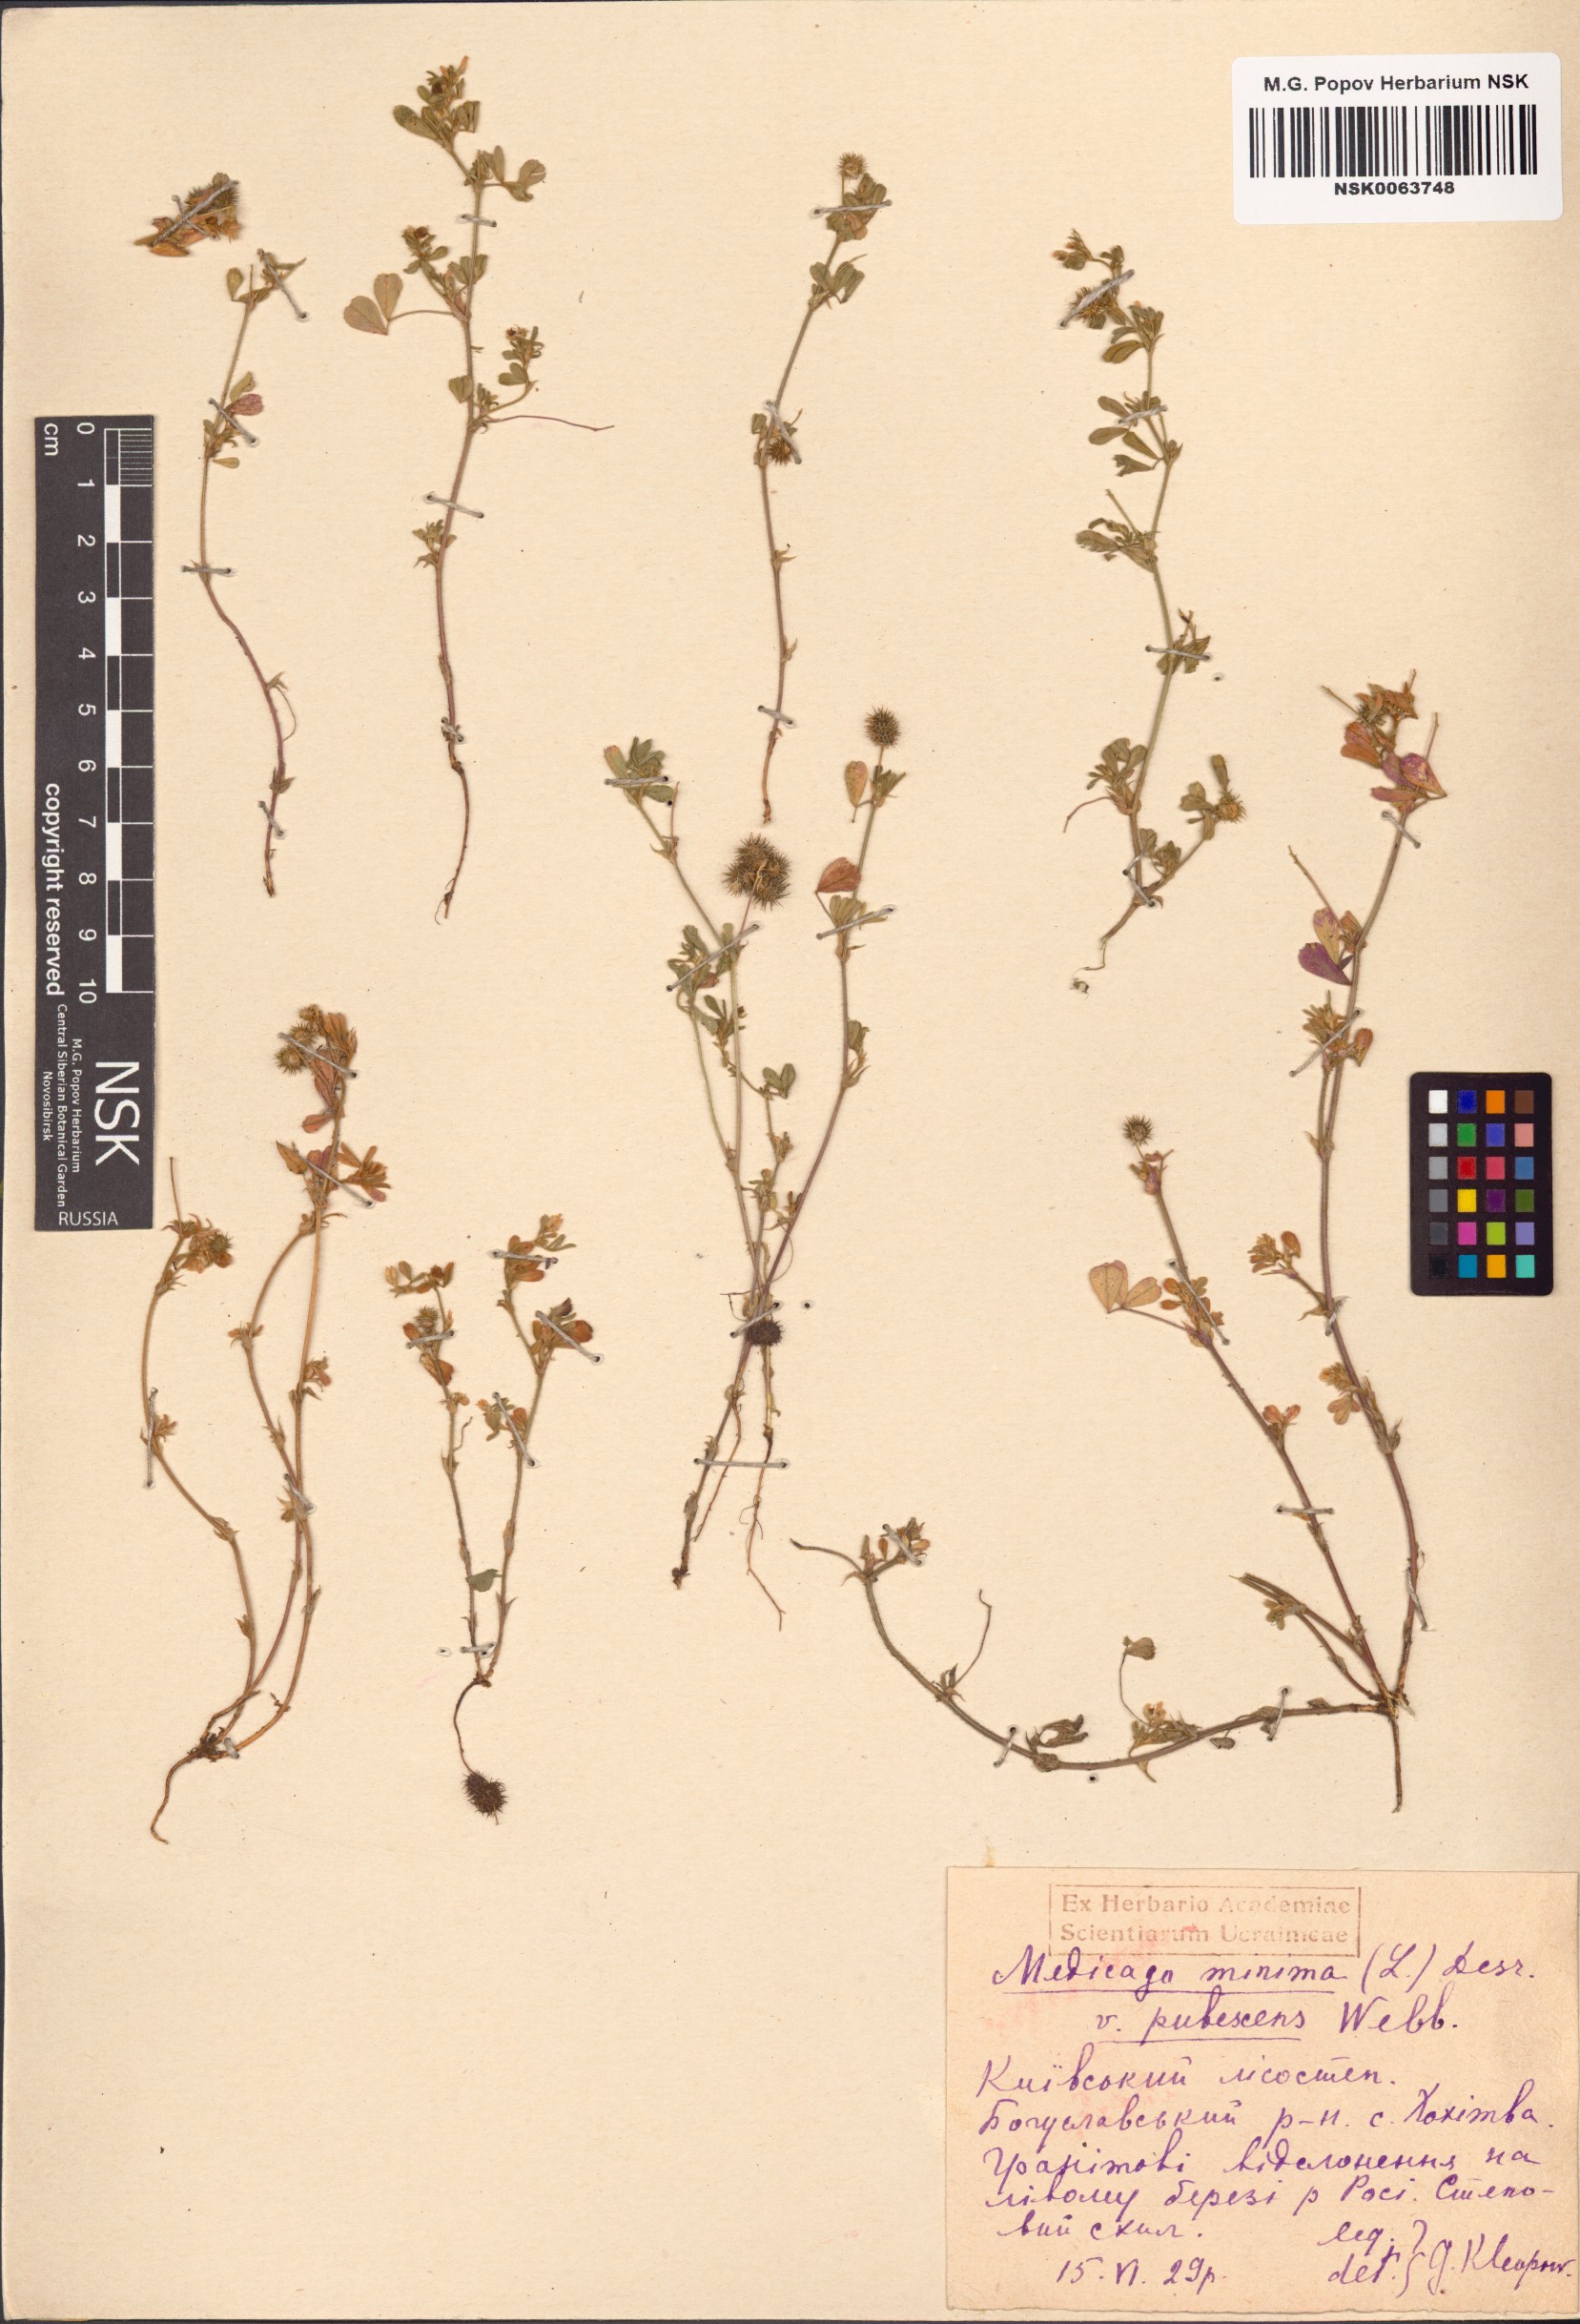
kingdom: Plantae
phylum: Tracheophyta
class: Magnoliopsida
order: Fabales
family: Fabaceae
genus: Medicago
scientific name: Medicago minima
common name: Little bur-clover
